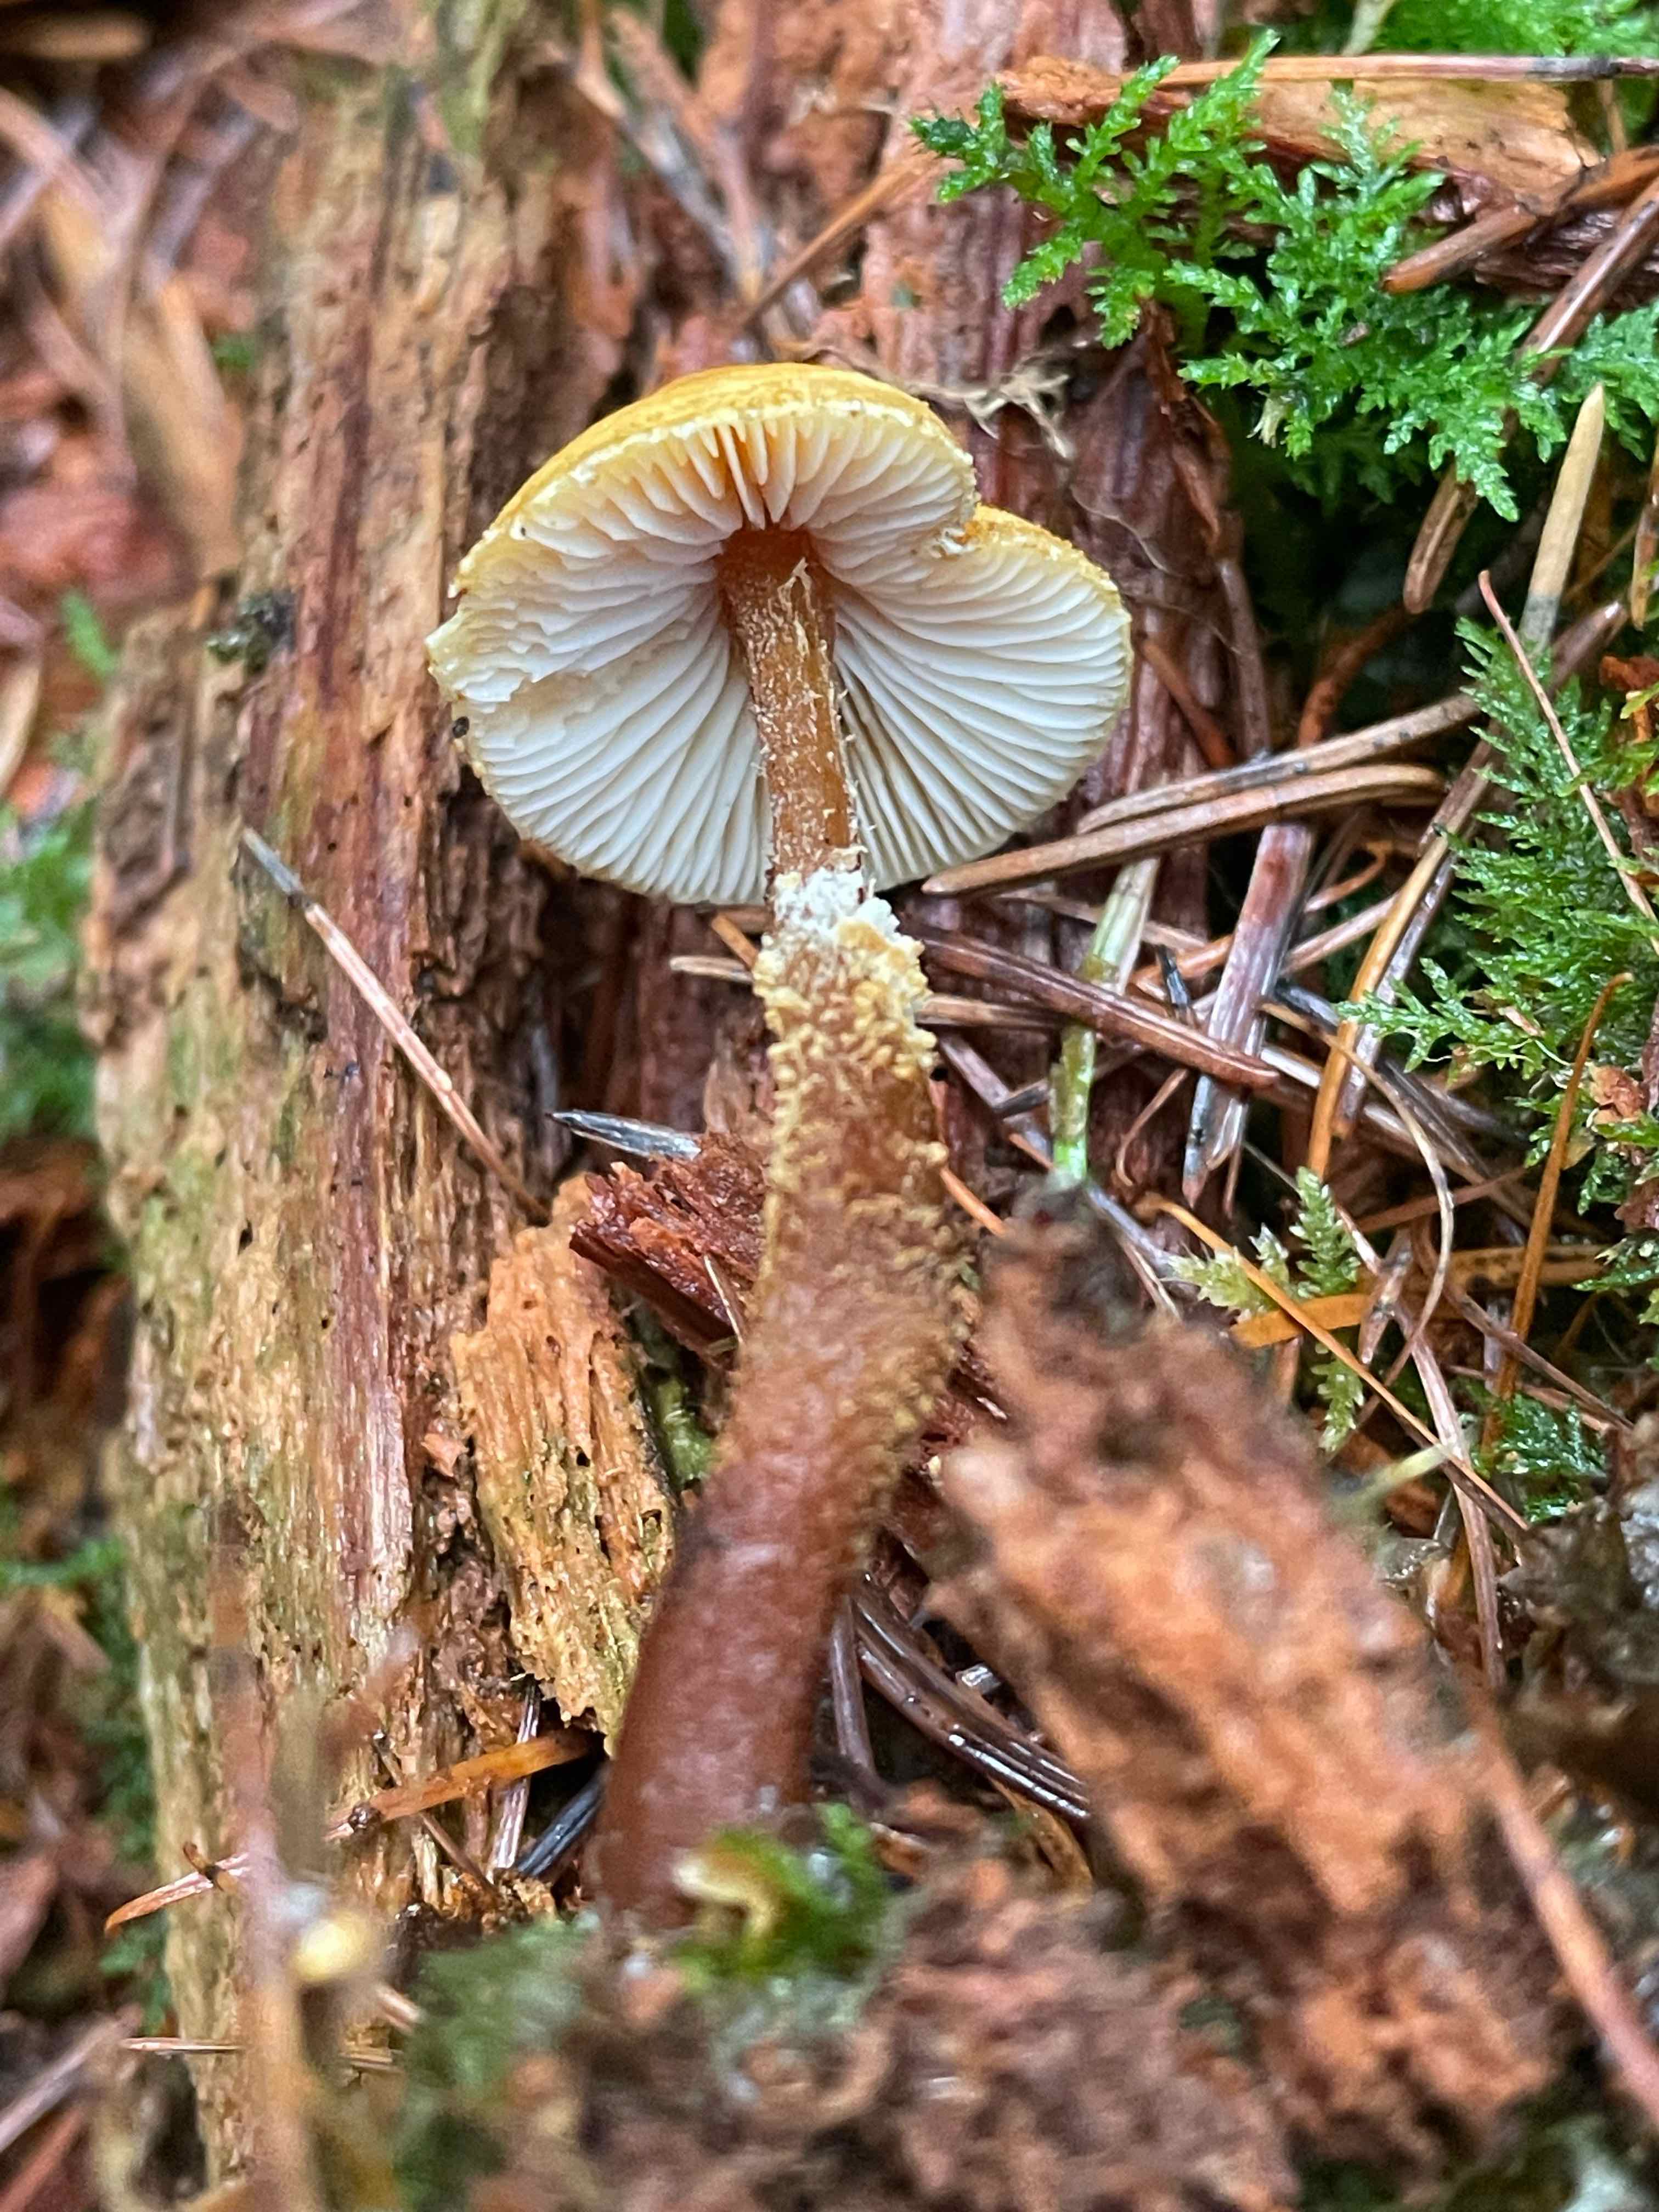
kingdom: Fungi
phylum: Basidiomycota
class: Agaricomycetes
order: Agaricales
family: Tricholomataceae
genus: Cystoderma
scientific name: Cystoderma amianthinum
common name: okkergul grynhat
